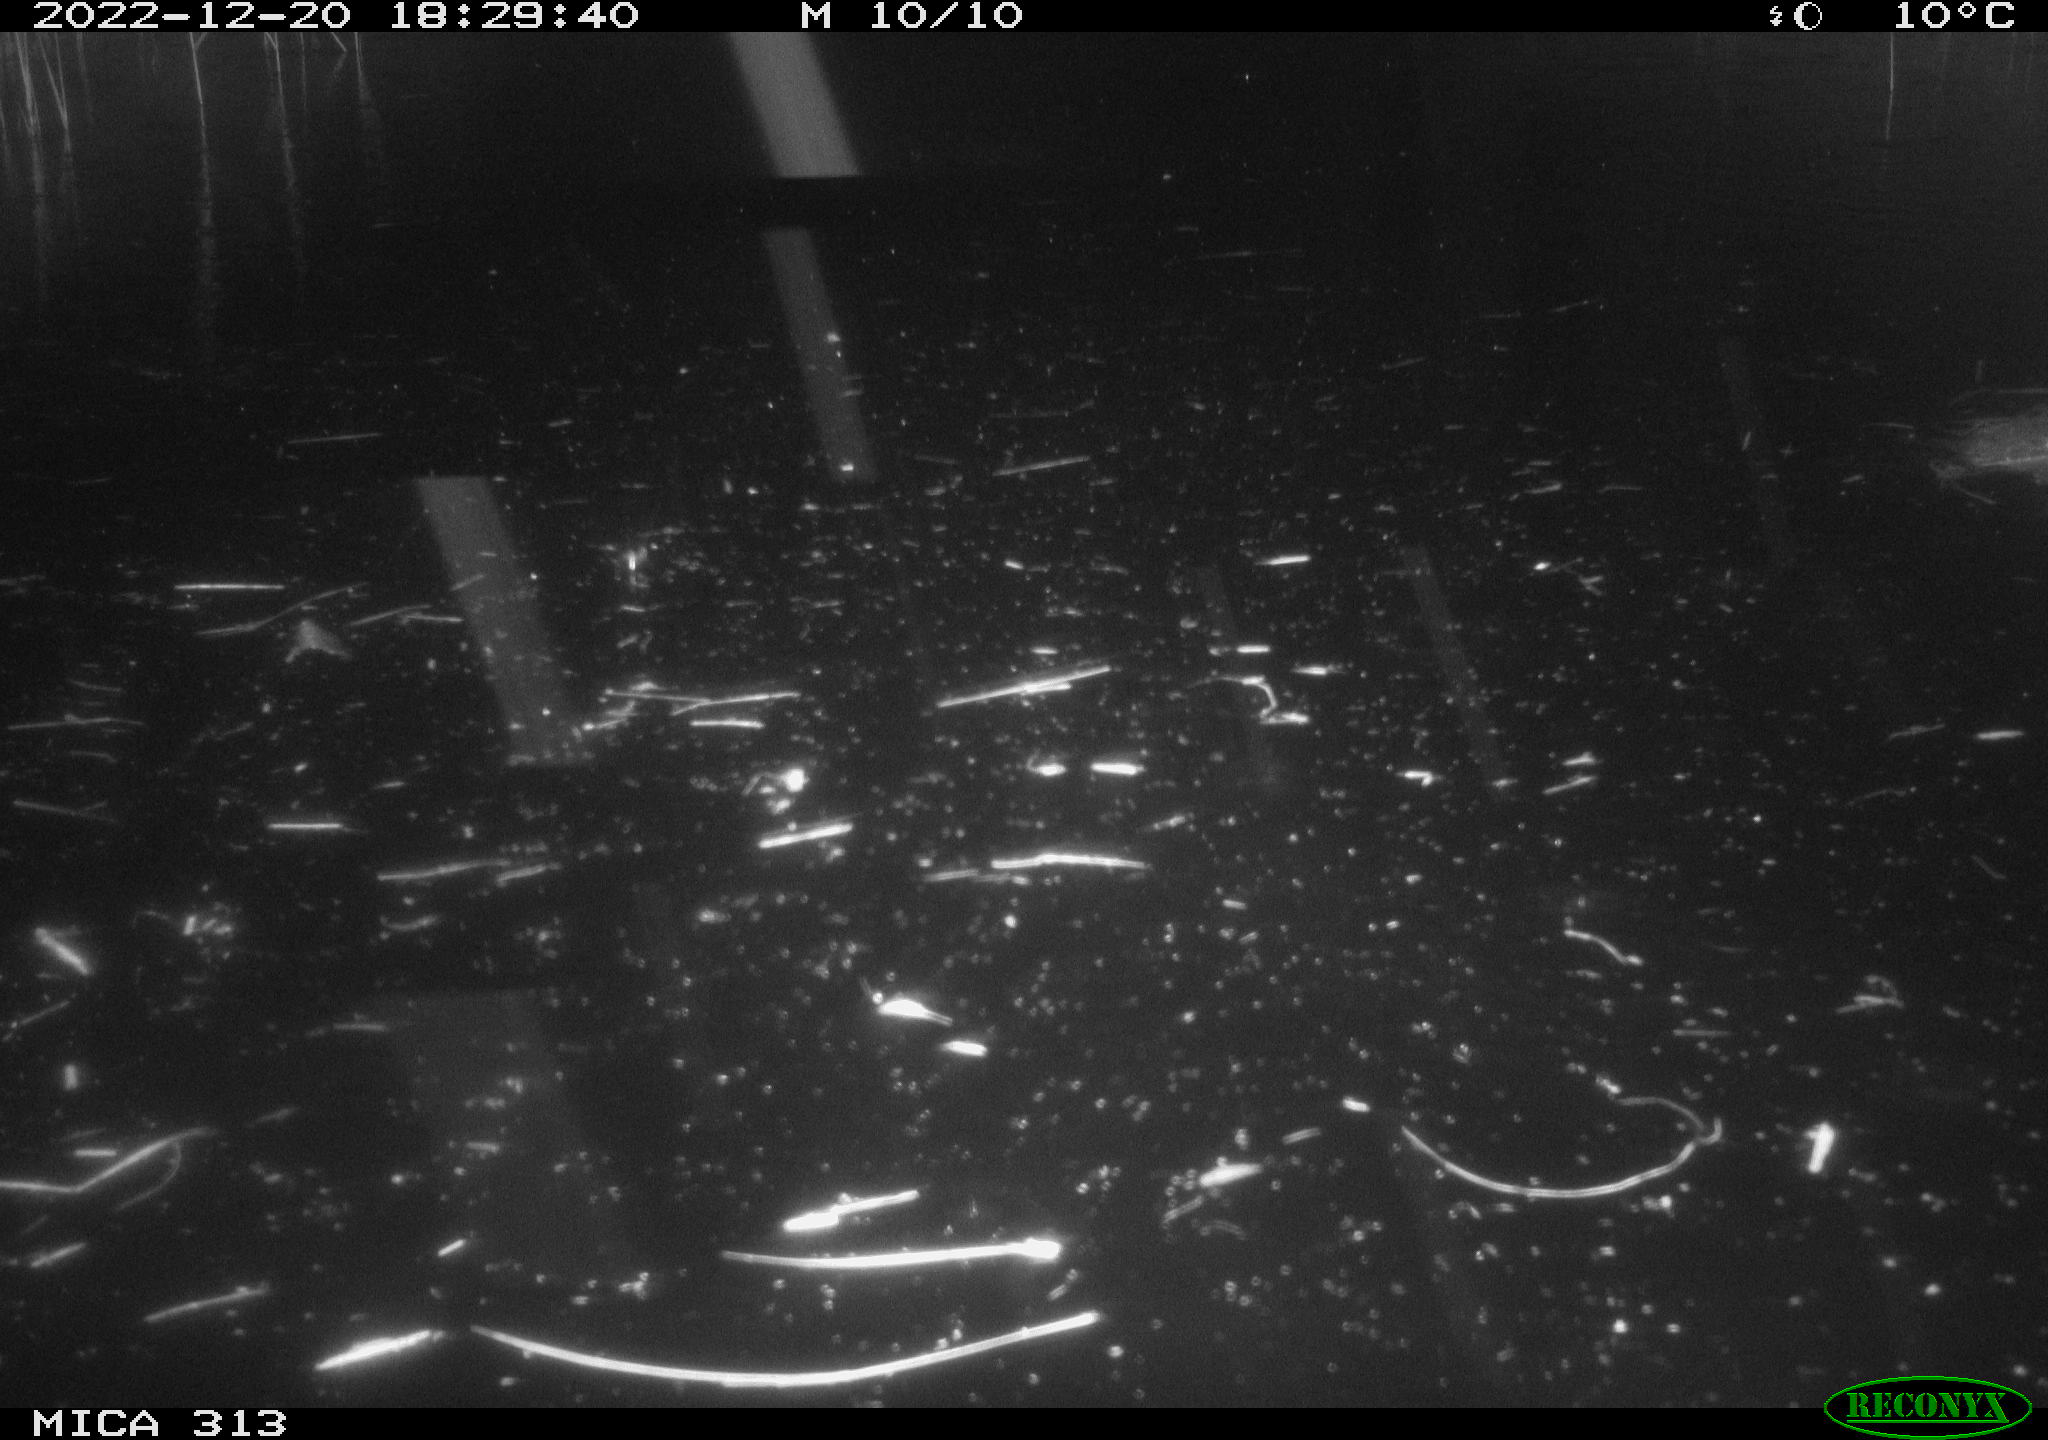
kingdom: Animalia
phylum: Chordata
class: Mammalia
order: Rodentia
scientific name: Rodentia
